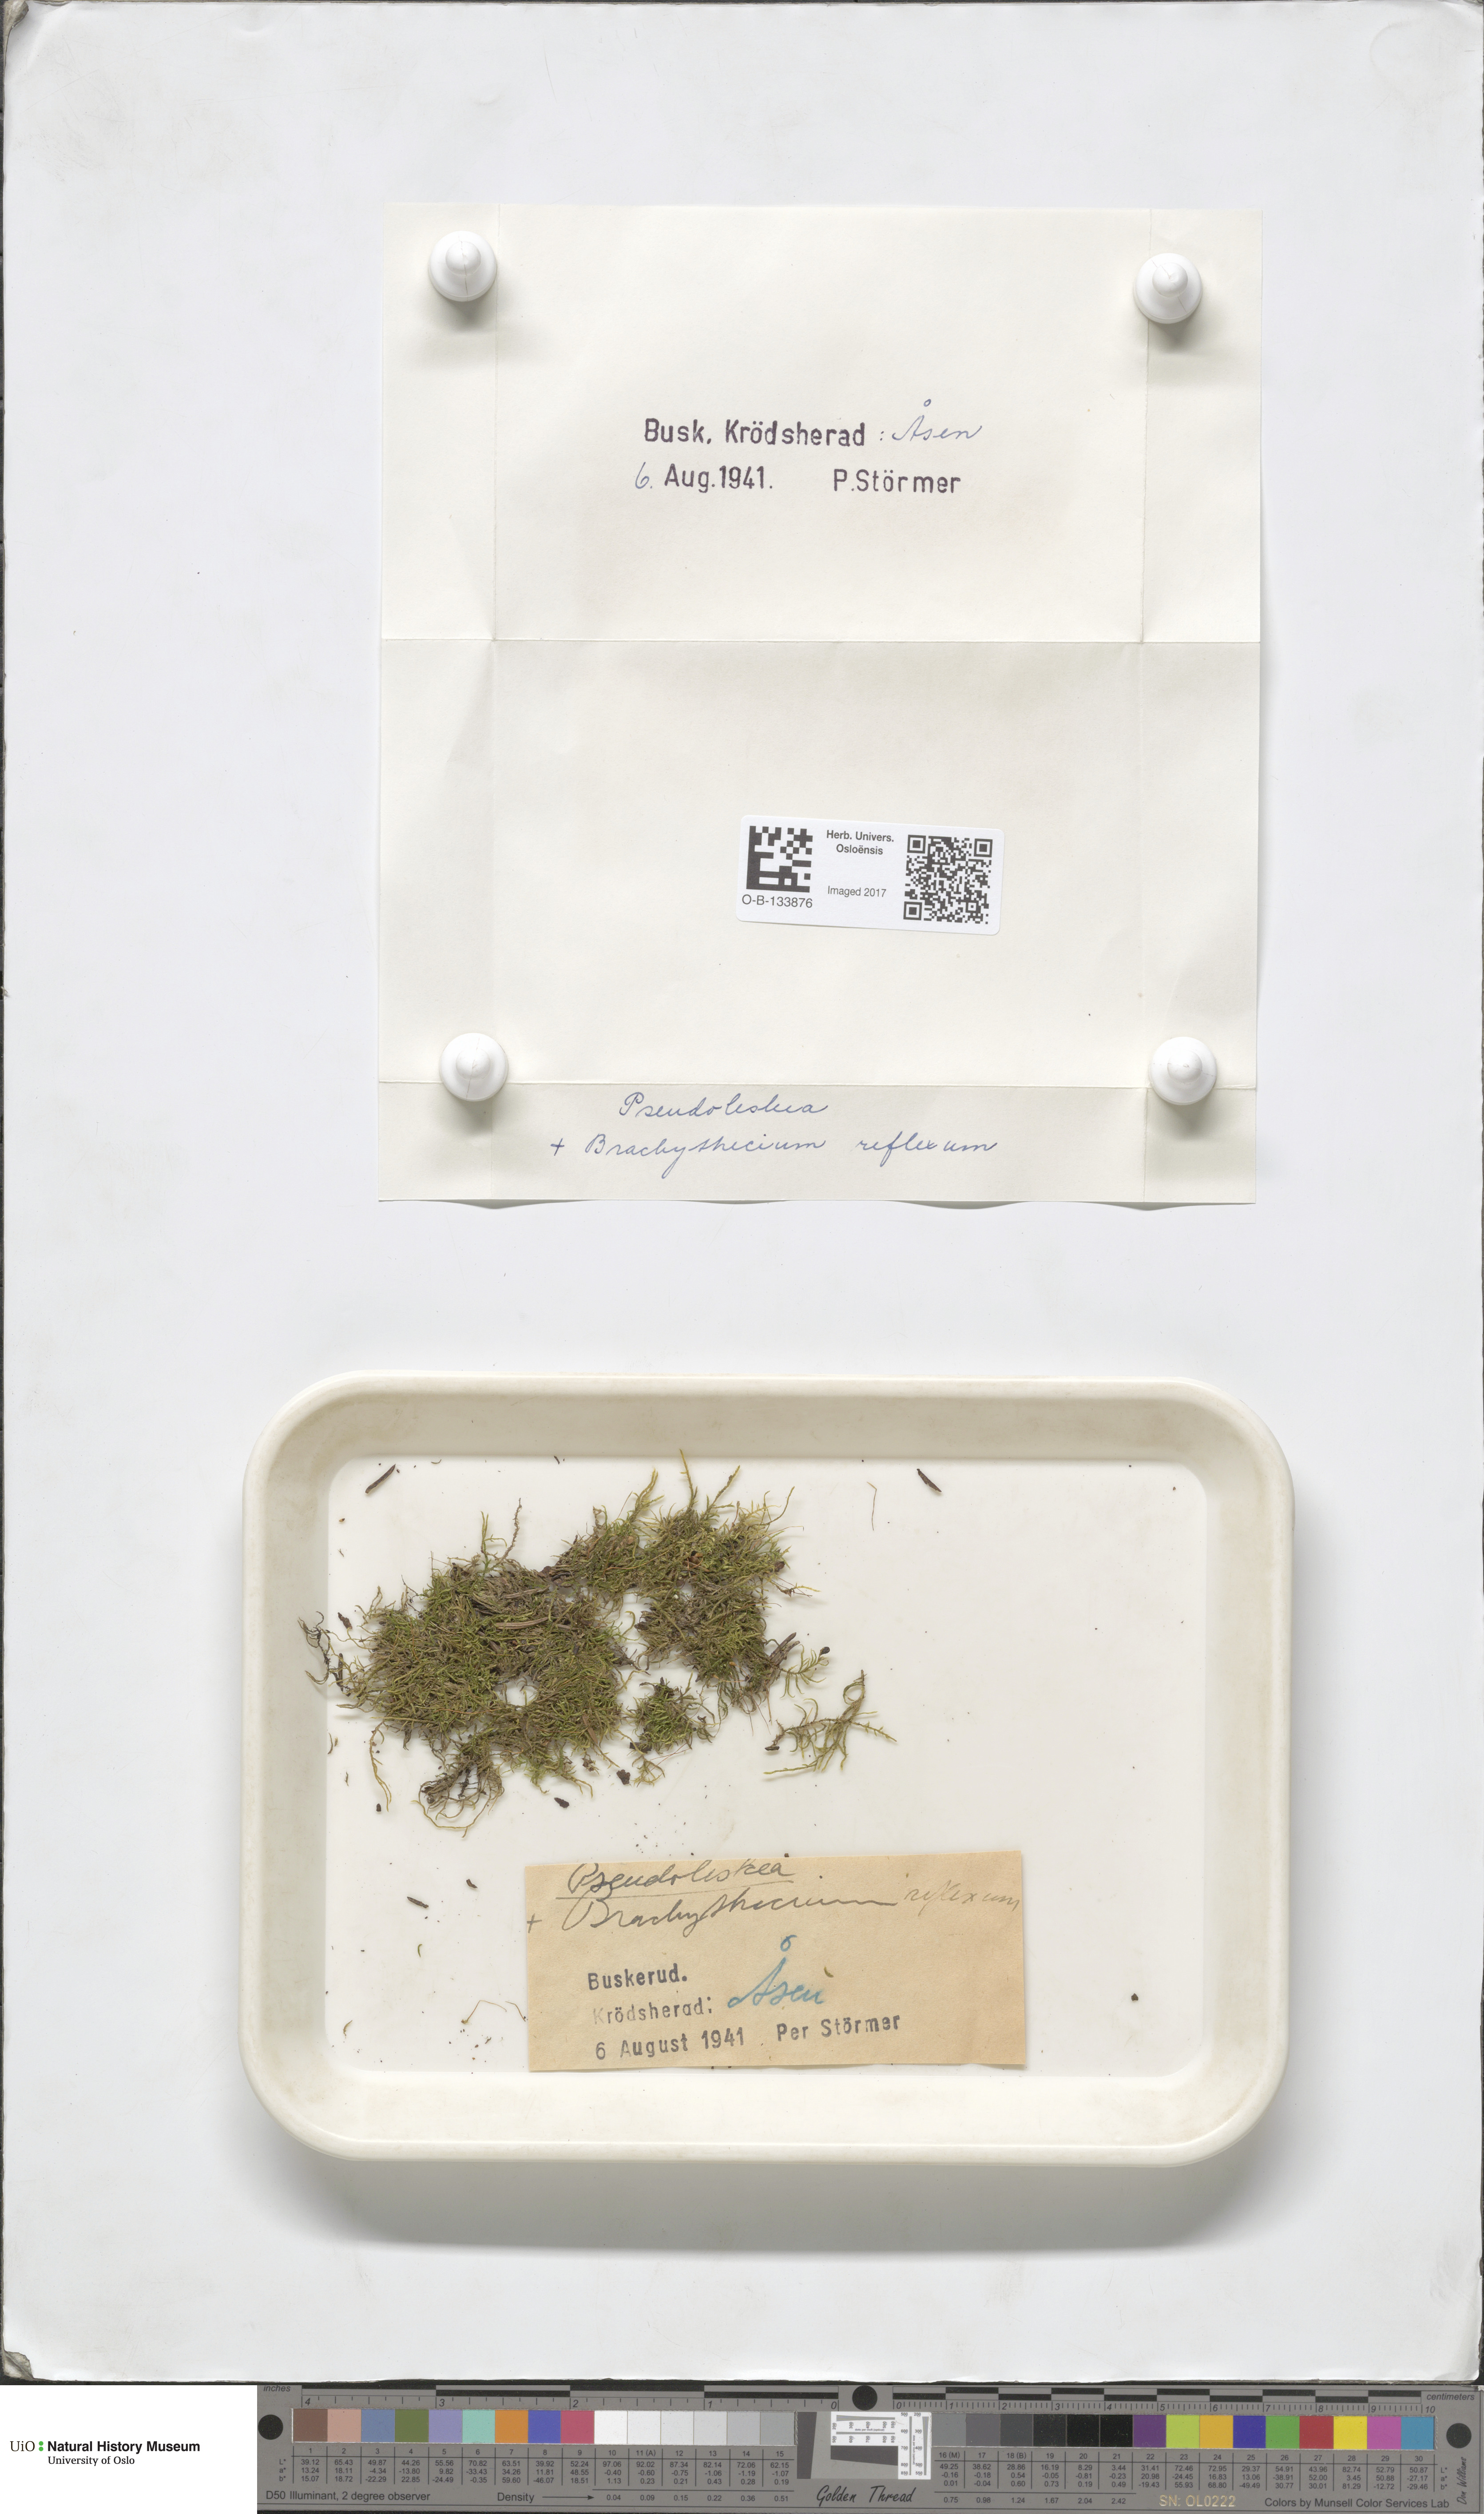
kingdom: Plantae
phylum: Bryophyta
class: Bryopsida
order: Hypnales
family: Brachytheciaceae
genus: Sciuro-hypnum
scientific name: Sciuro-hypnum reflexum
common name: Reflexed feather-moss
